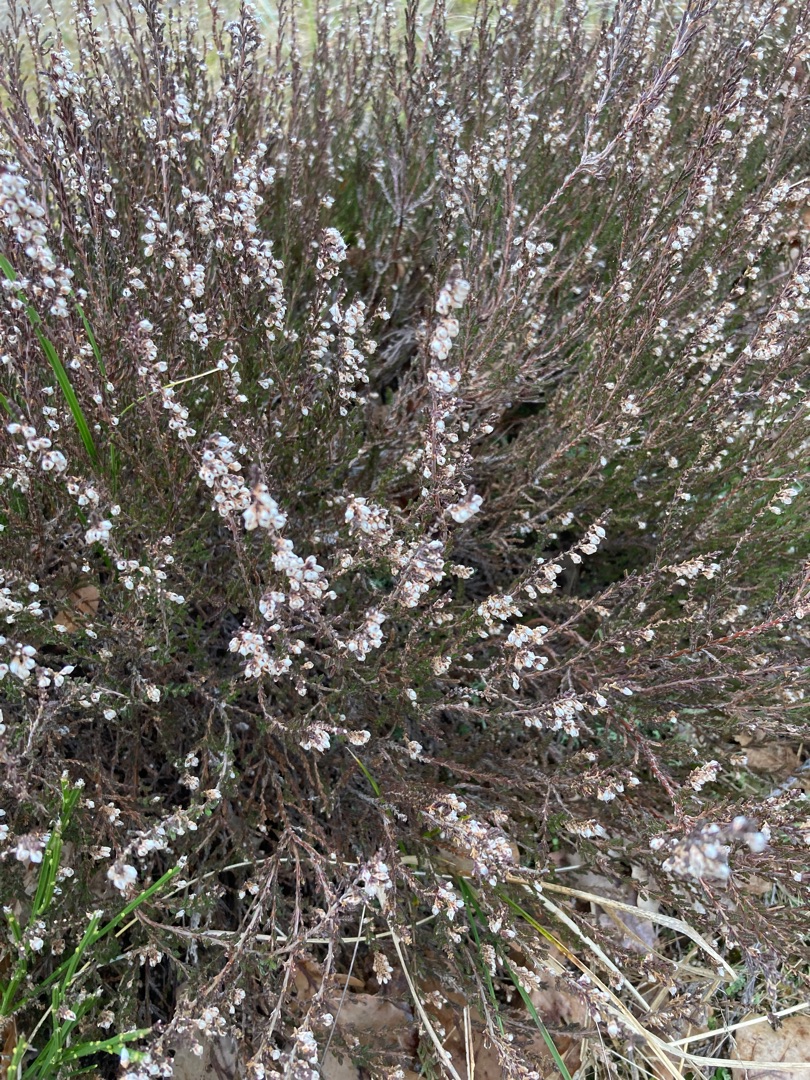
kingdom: Plantae
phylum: Tracheophyta
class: Magnoliopsida
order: Ericales
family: Ericaceae
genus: Calluna
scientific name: Calluna vulgaris
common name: Hedelyng
